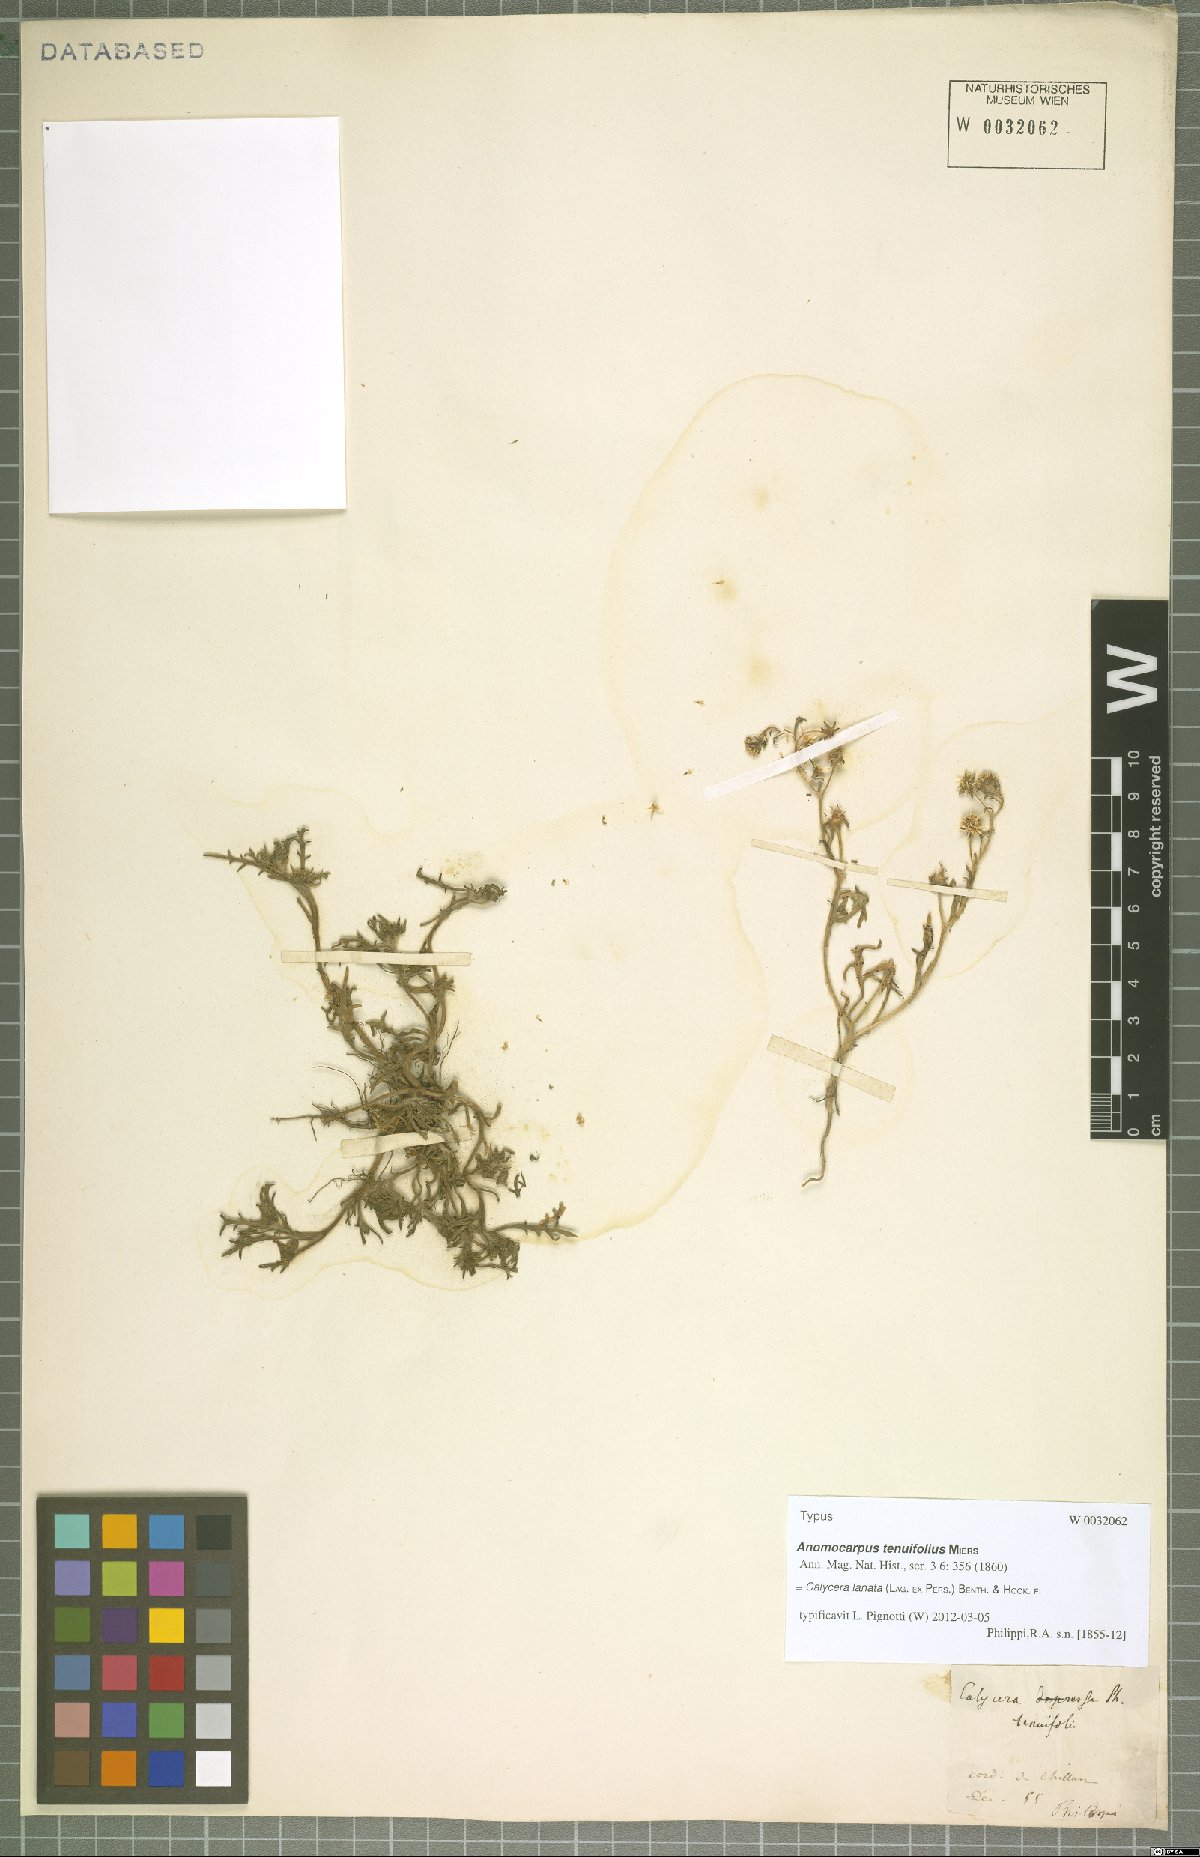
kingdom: Plantae
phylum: Tracheophyta
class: Magnoliopsida
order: Asterales
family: Calyceraceae
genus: Leucocera
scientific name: Leucocera leucanthema
